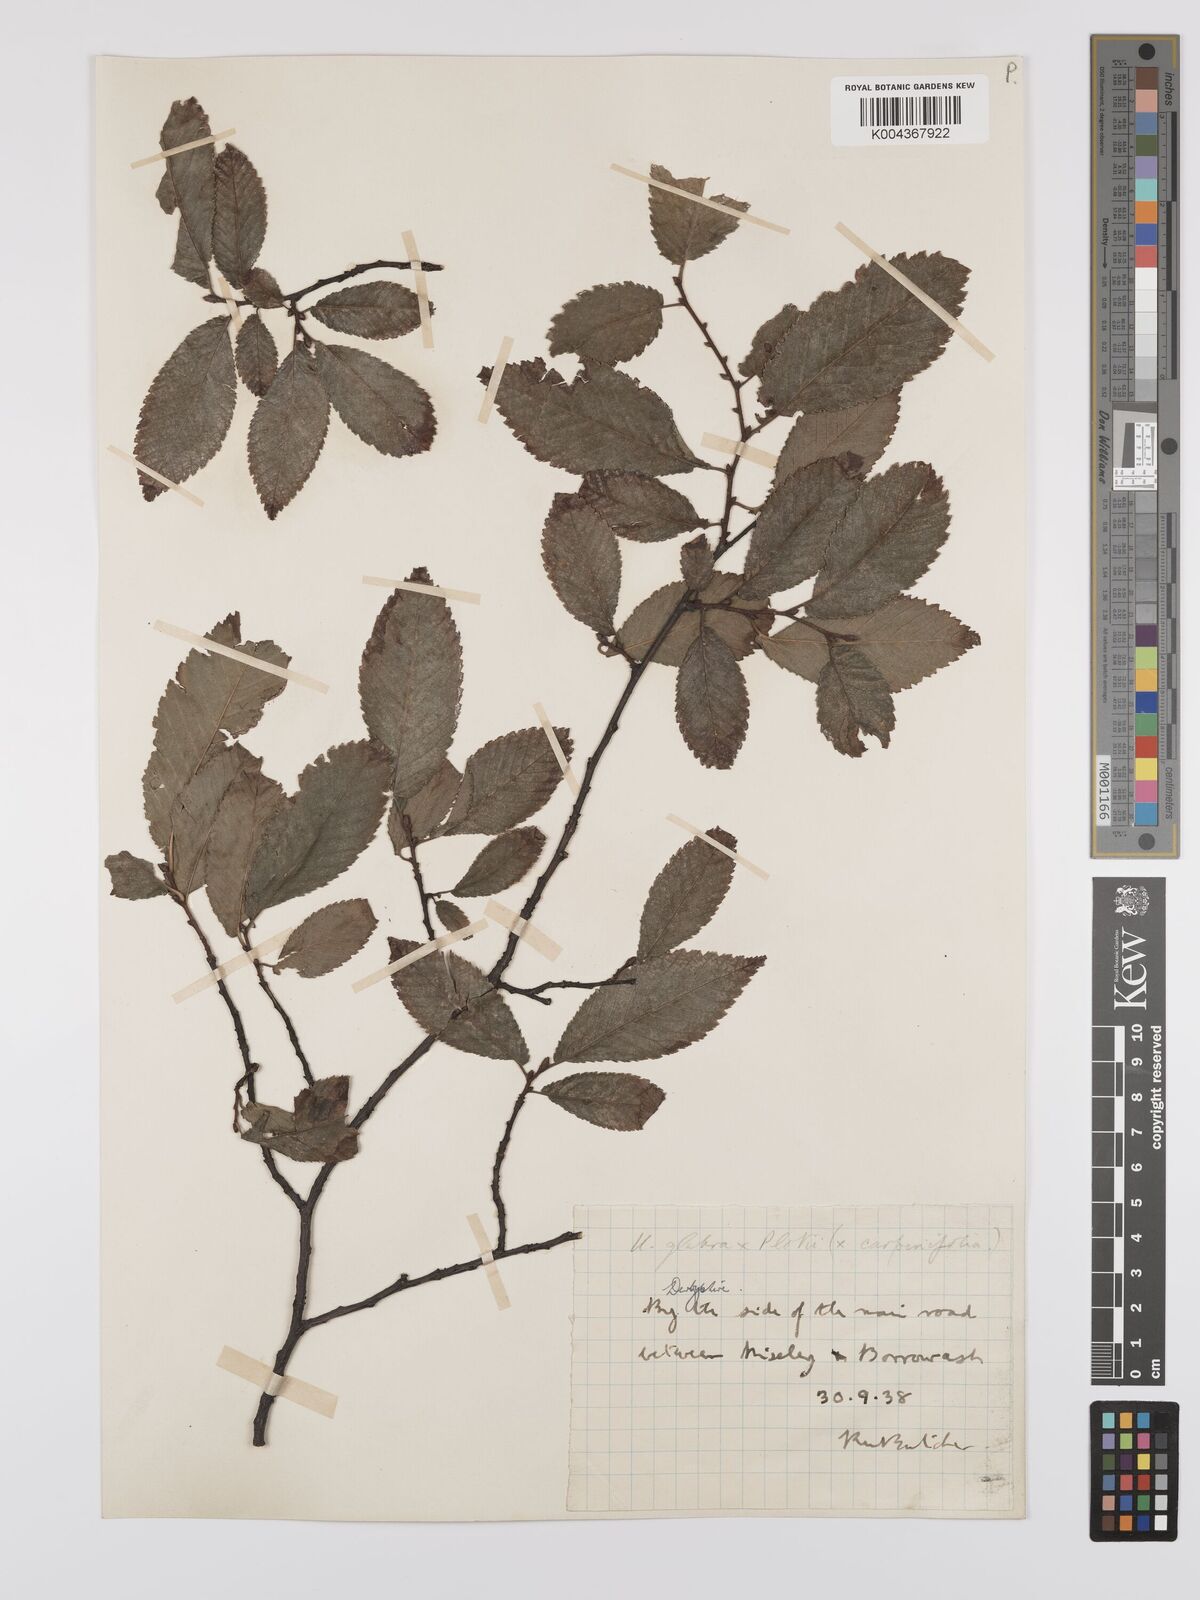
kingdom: Plantae
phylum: Tracheophyta
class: Magnoliopsida
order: Rosales
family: Ulmaceae
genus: Ulmus
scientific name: Ulmus
